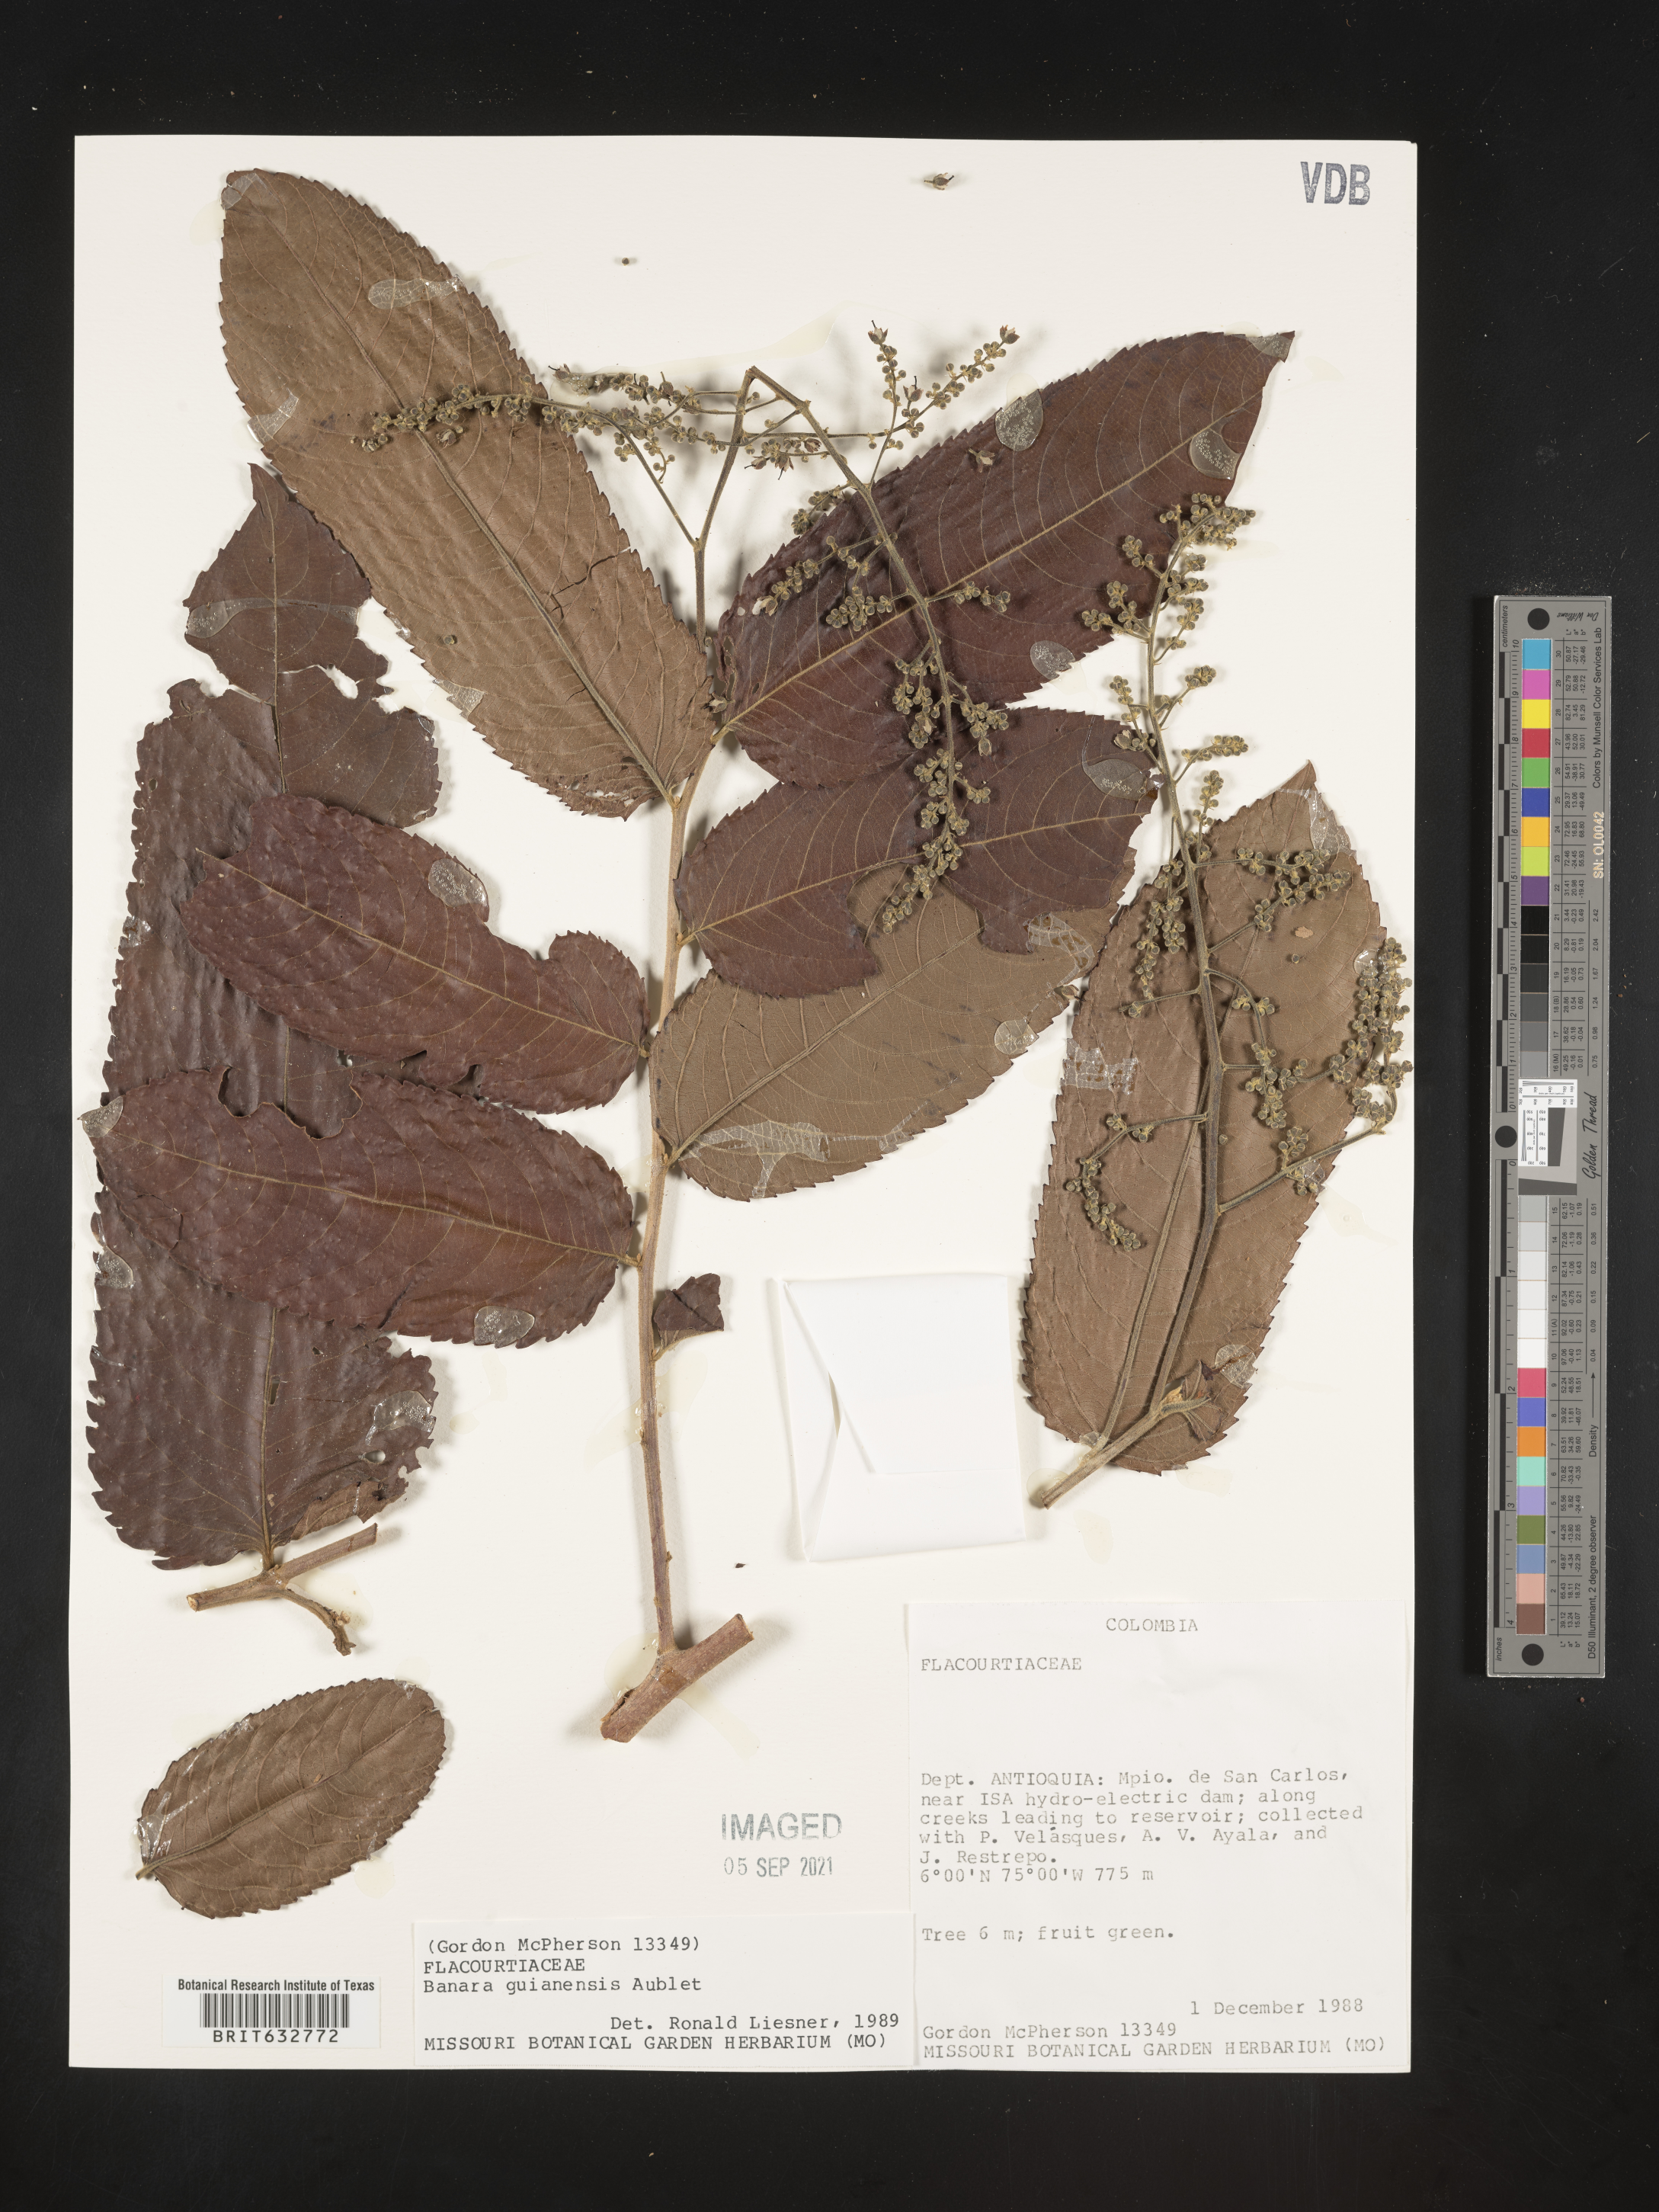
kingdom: Plantae
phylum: Tracheophyta
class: Magnoliopsida
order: Malpighiales
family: Salicaceae
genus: Banara
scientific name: Banara
